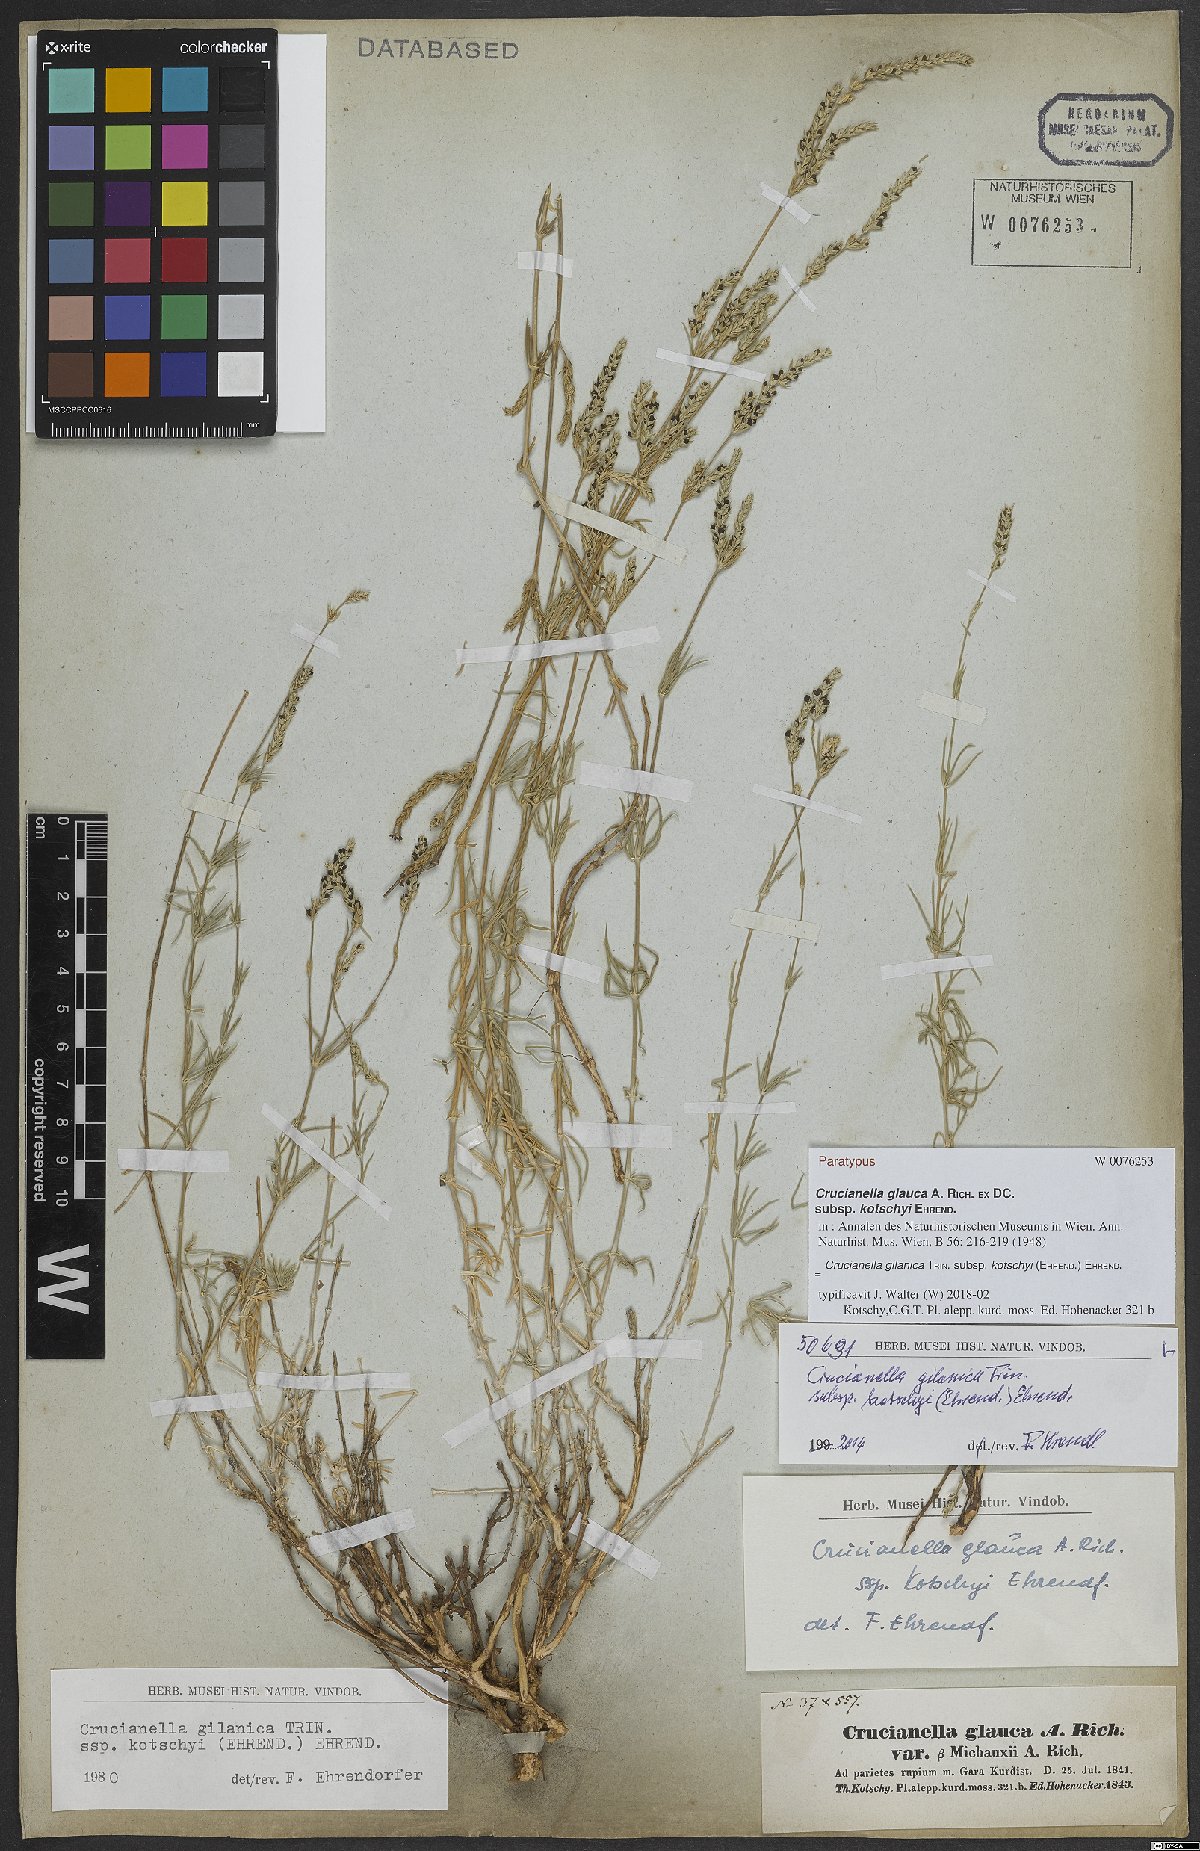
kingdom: Plantae
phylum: Tracheophyta
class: Magnoliopsida
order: Gentianales
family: Rubiaceae
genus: Crucianella
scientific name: Crucianella gilanica
